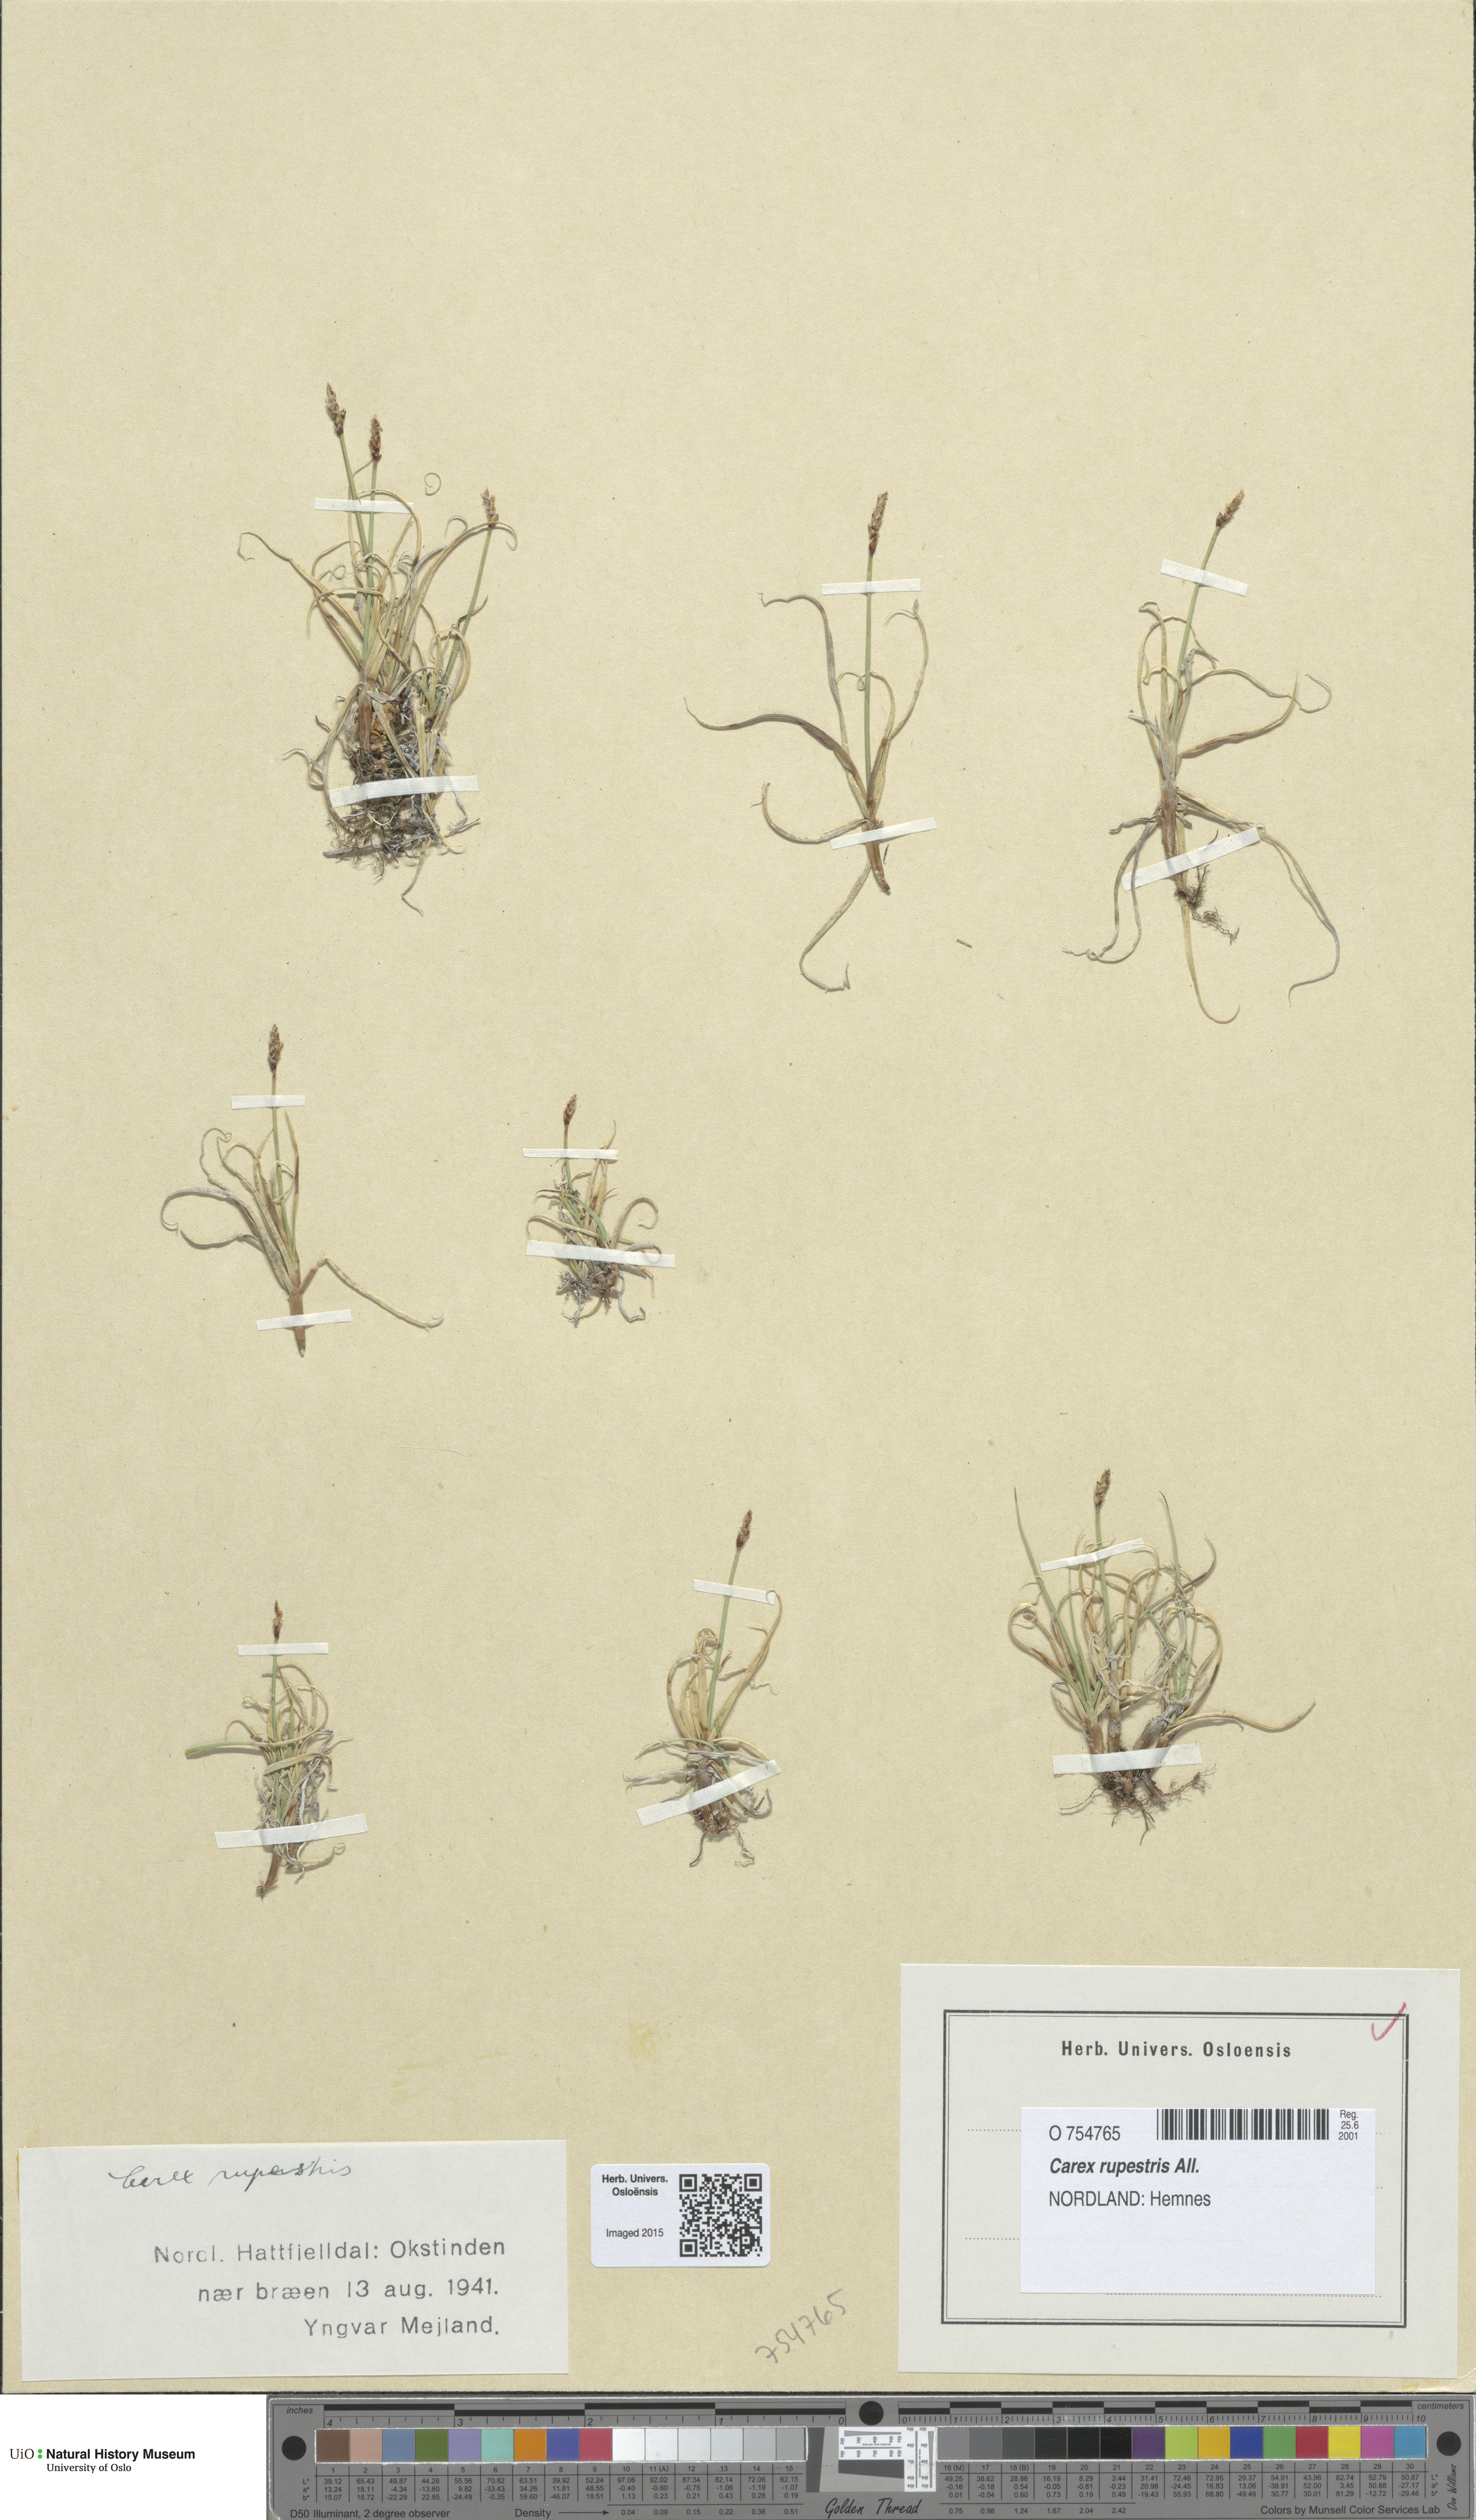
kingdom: Plantae
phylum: Tracheophyta
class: Liliopsida
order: Poales
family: Cyperaceae
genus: Carex
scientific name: Carex rupestris
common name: Rock sedge
